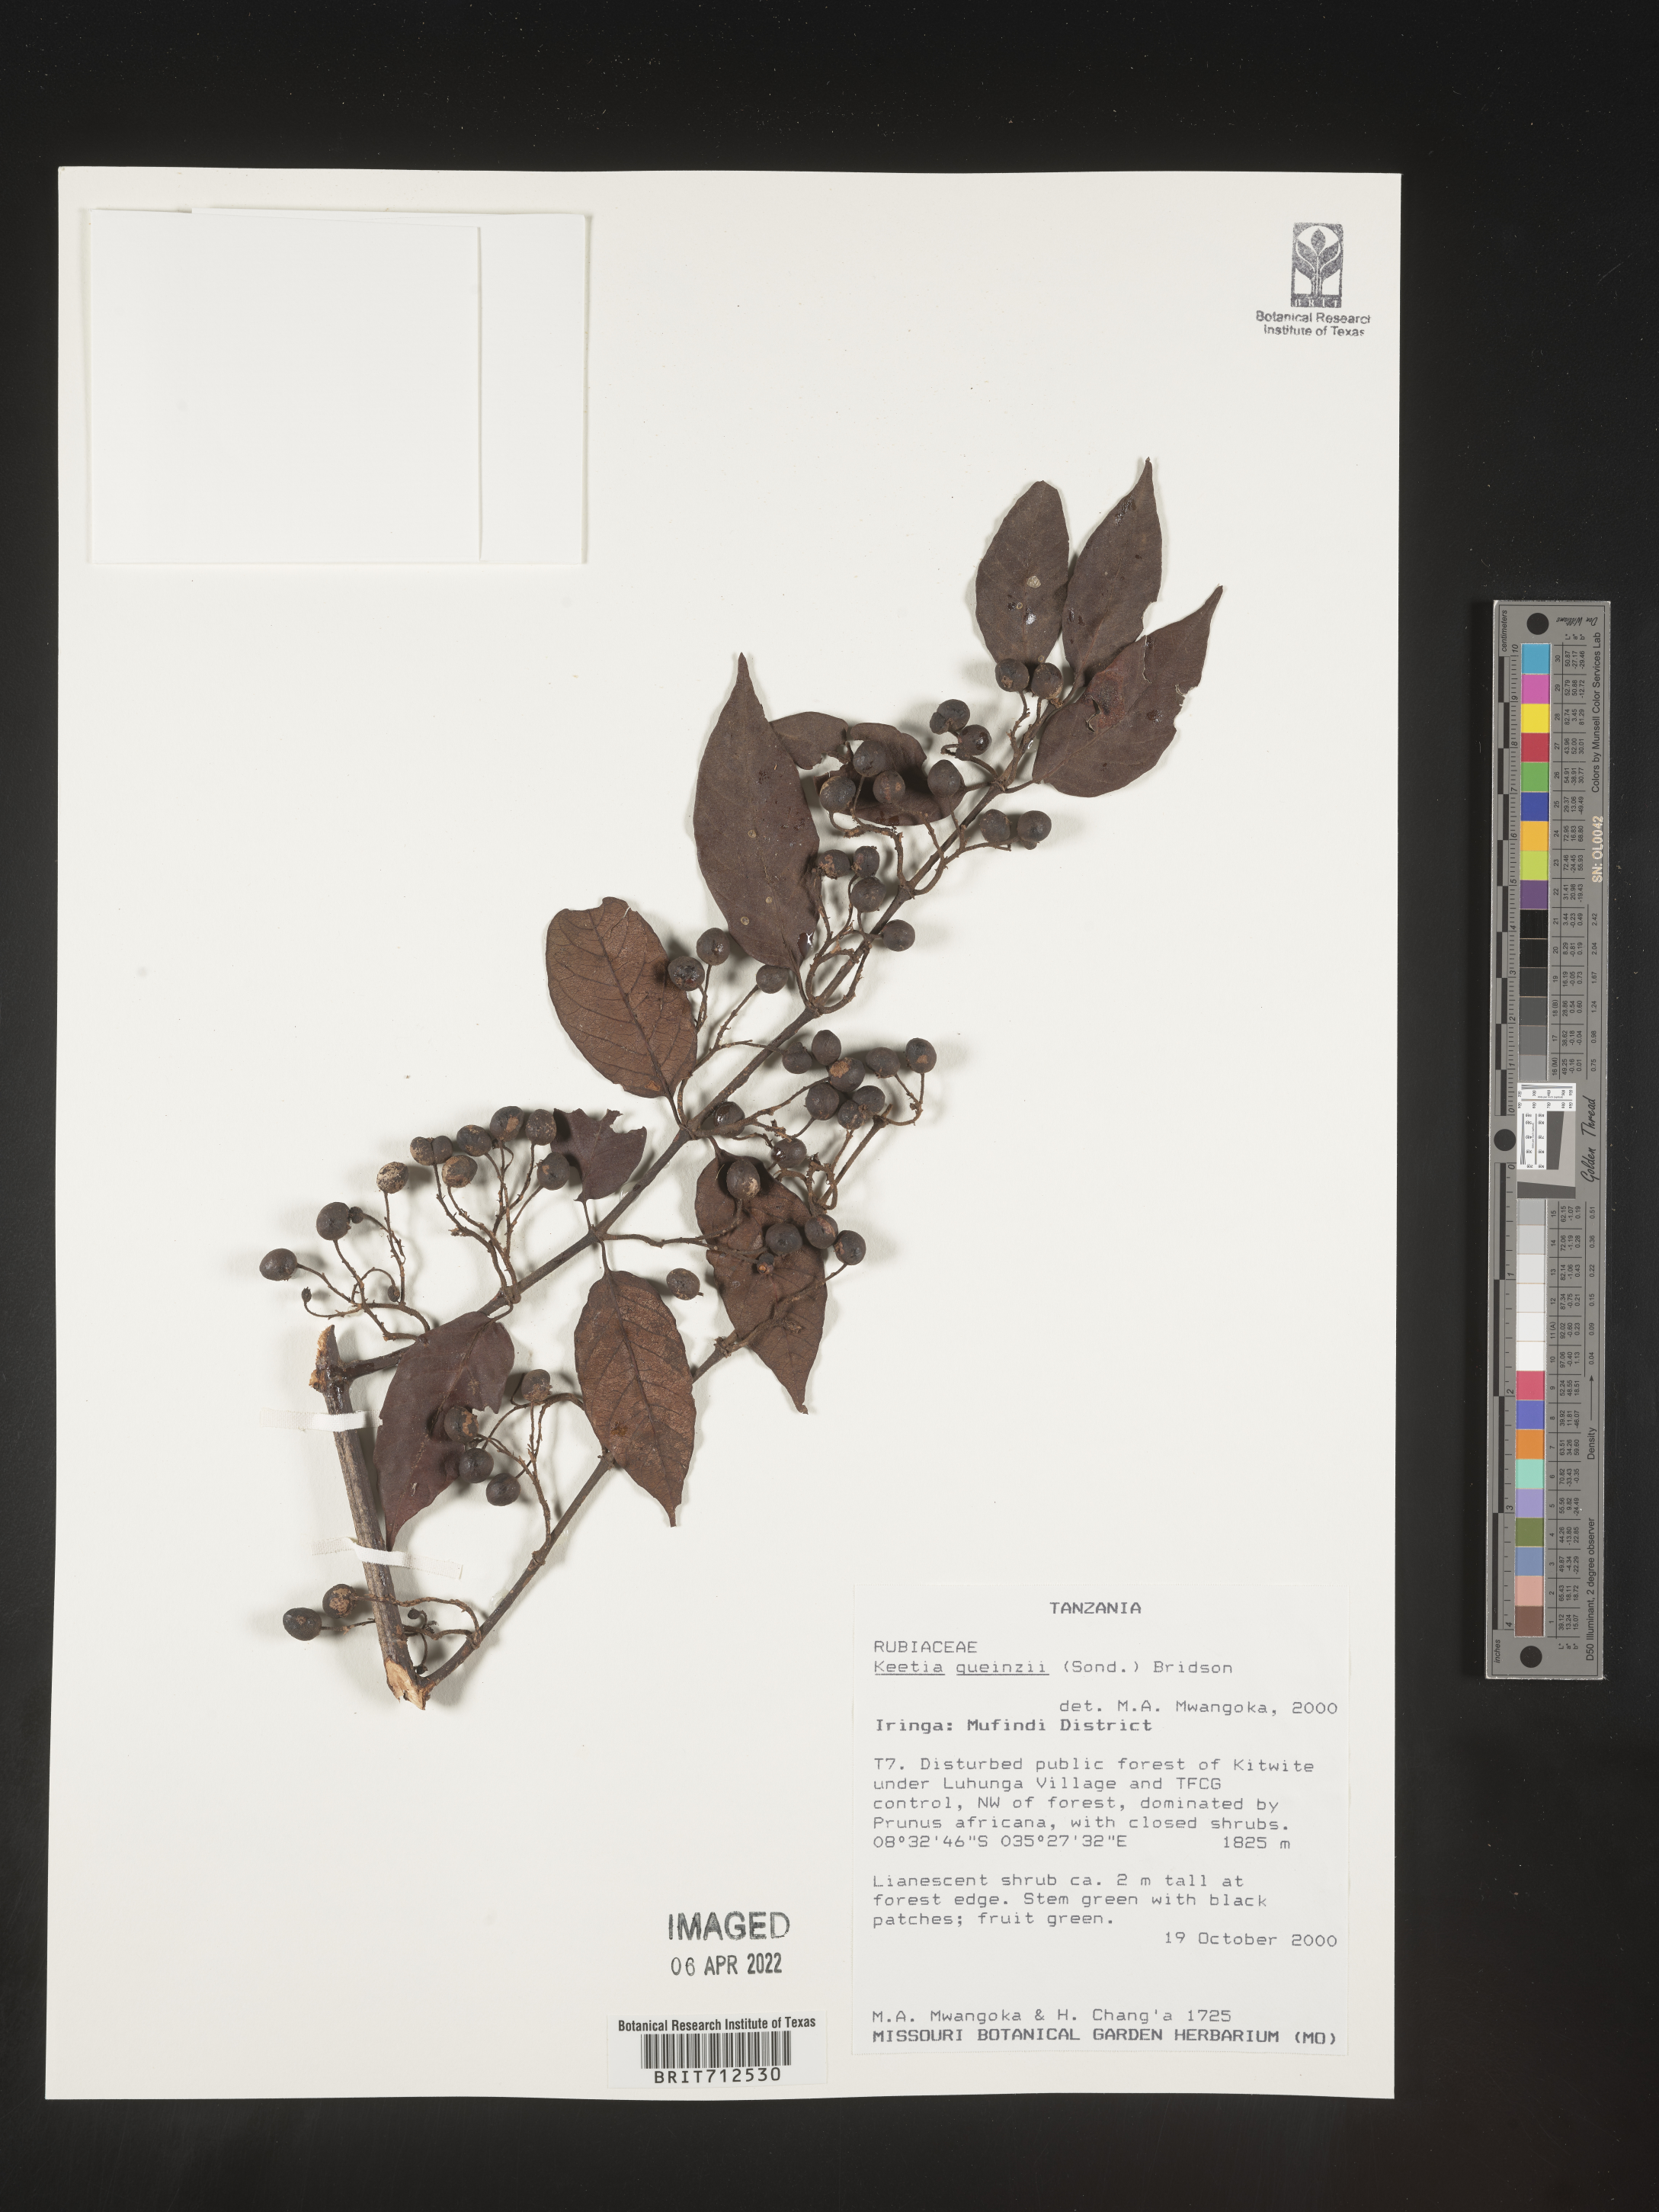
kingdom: Plantae
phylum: Tracheophyta
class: Magnoliopsida
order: Gentianales
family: Rubiaceae
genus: Keetia
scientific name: Keetia
